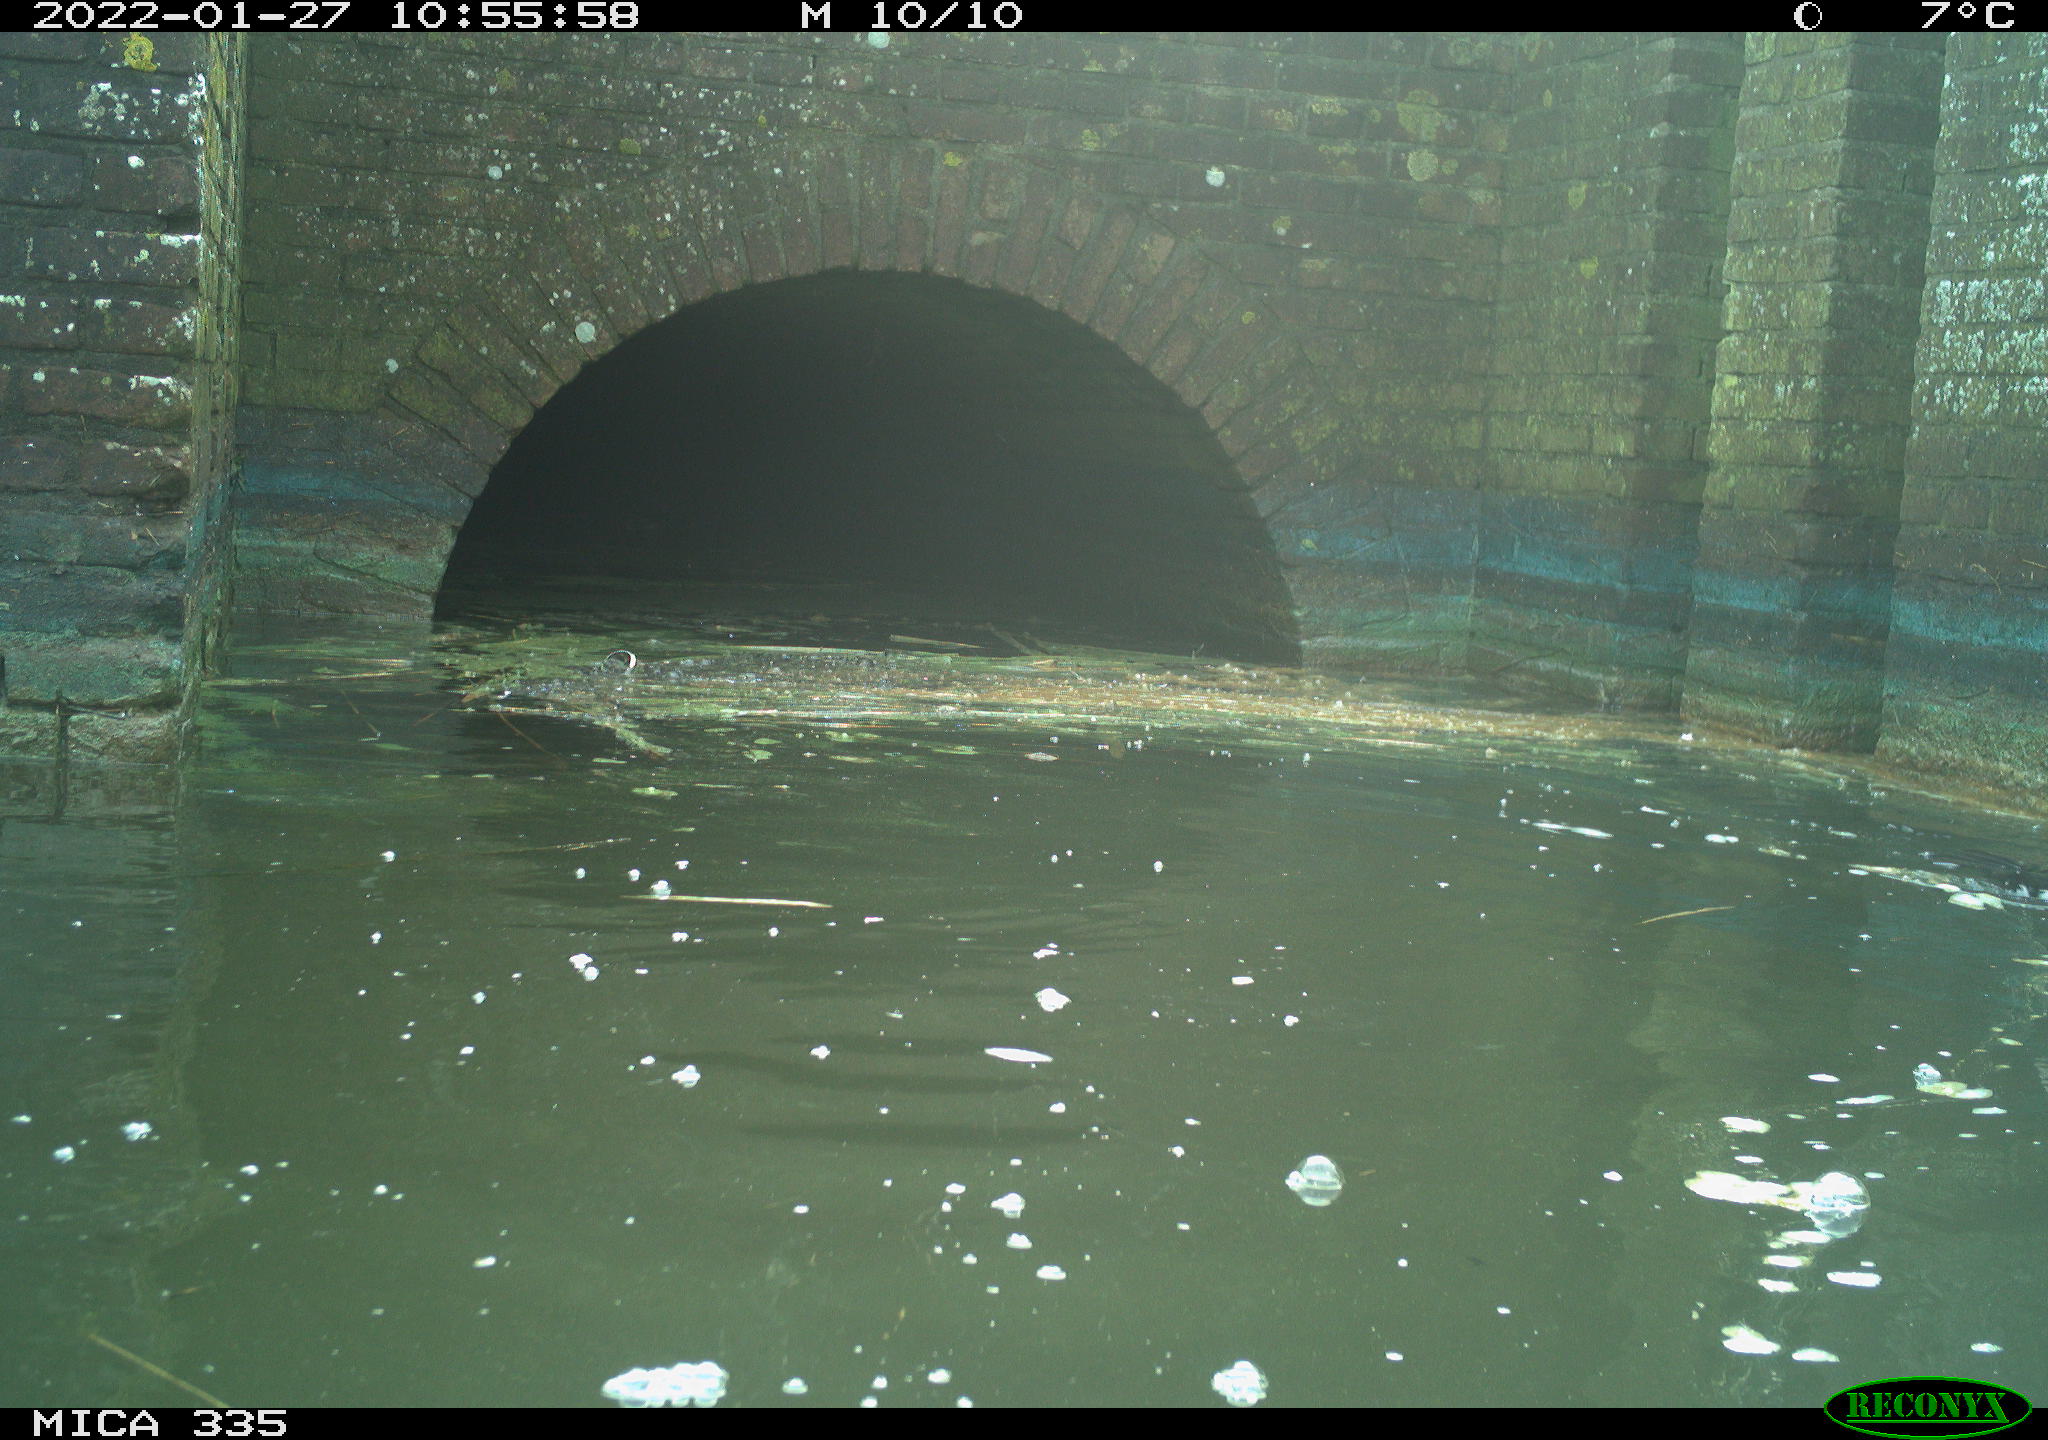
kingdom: Animalia
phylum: Chordata
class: Aves
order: Anseriformes
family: Anatidae
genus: Anas
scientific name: Anas platyrhynchos
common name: Mallard
